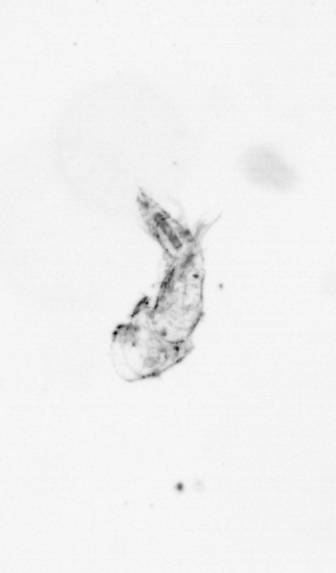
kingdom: Animalia
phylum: Arthropoda
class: Copepoda
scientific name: Copepoda
